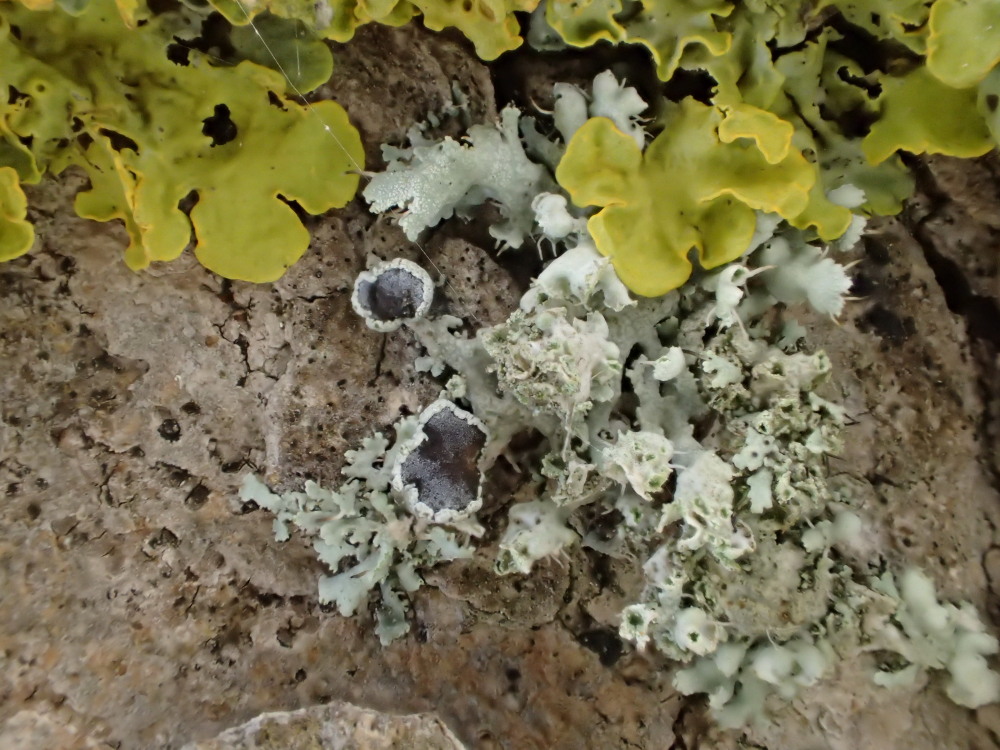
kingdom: Fungi
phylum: Ascomycota
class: Lecanoromycetes
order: Caliciales
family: Physciaceae
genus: Physcia
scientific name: Physcia tenella
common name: spæd rosetlav
